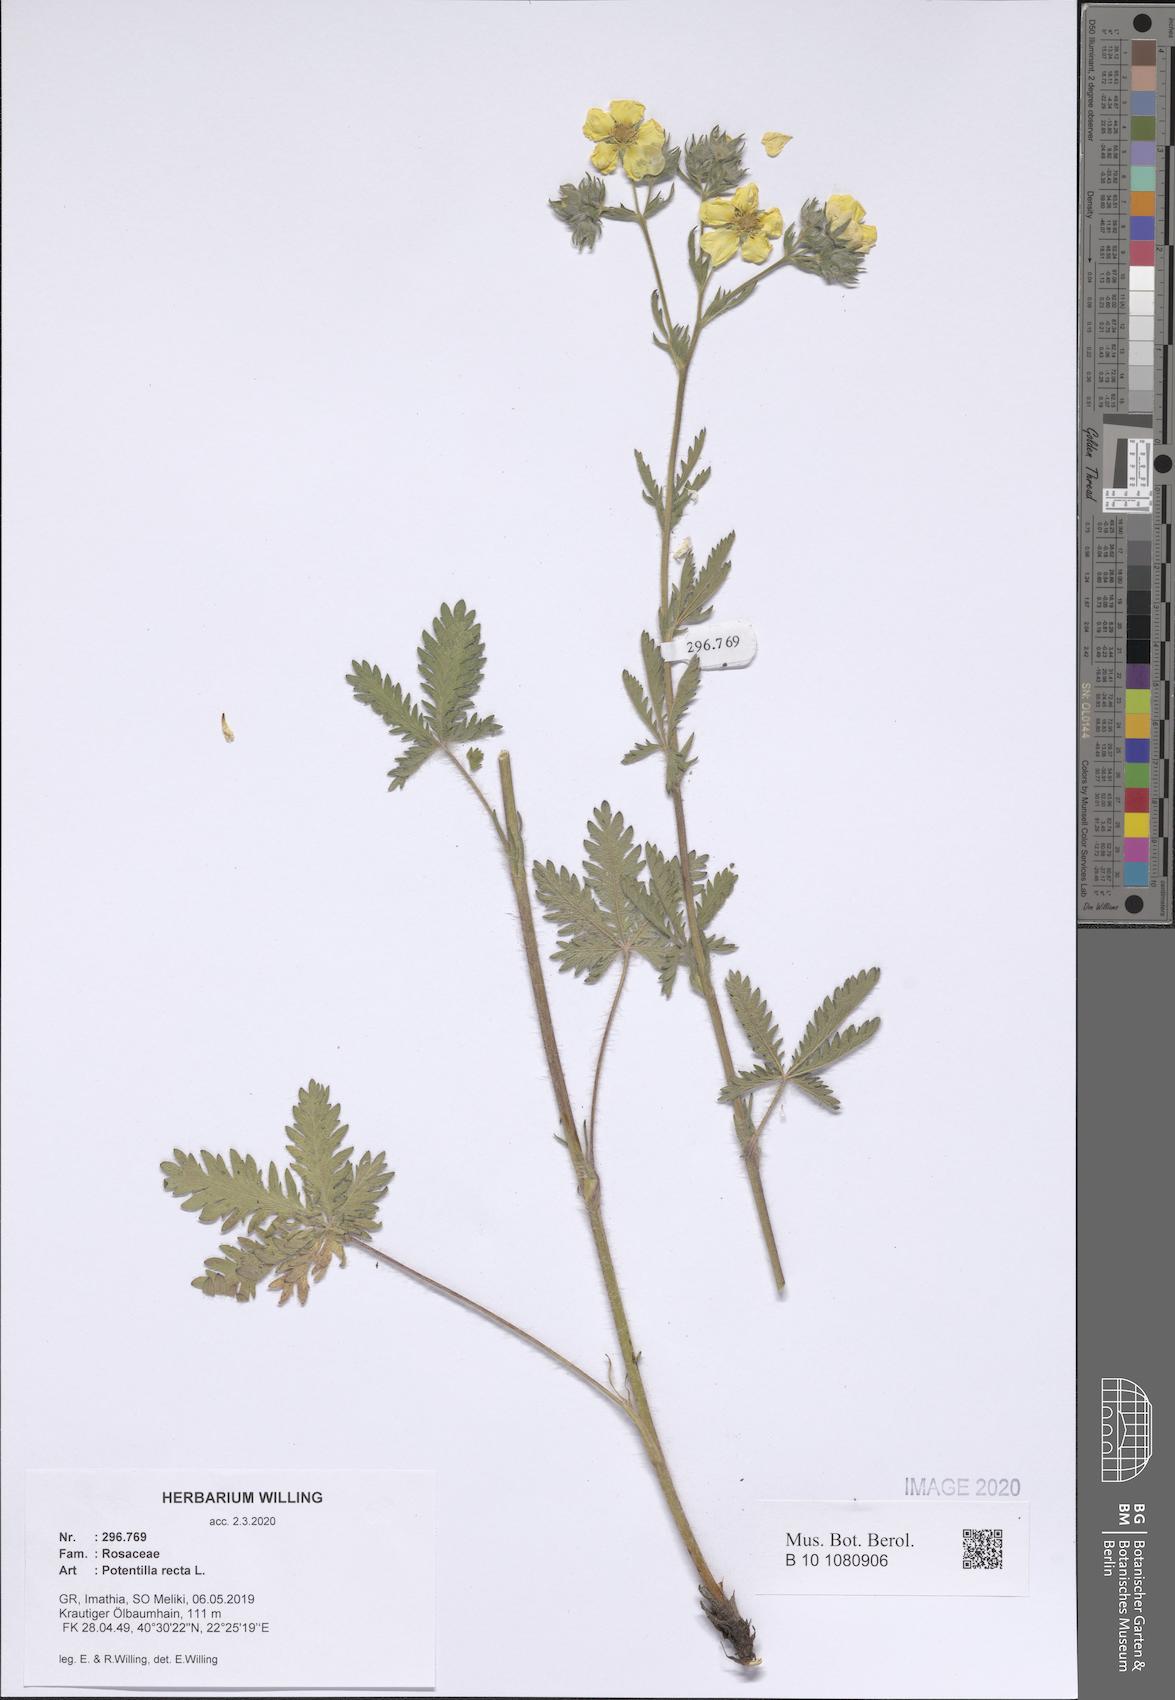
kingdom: Plantae
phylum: Tracheophyta
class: Magnoliopsida
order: Rosales
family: Rosaceae
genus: Potentilla
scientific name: Potentilla recta
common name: Sulphur cinquefoil
